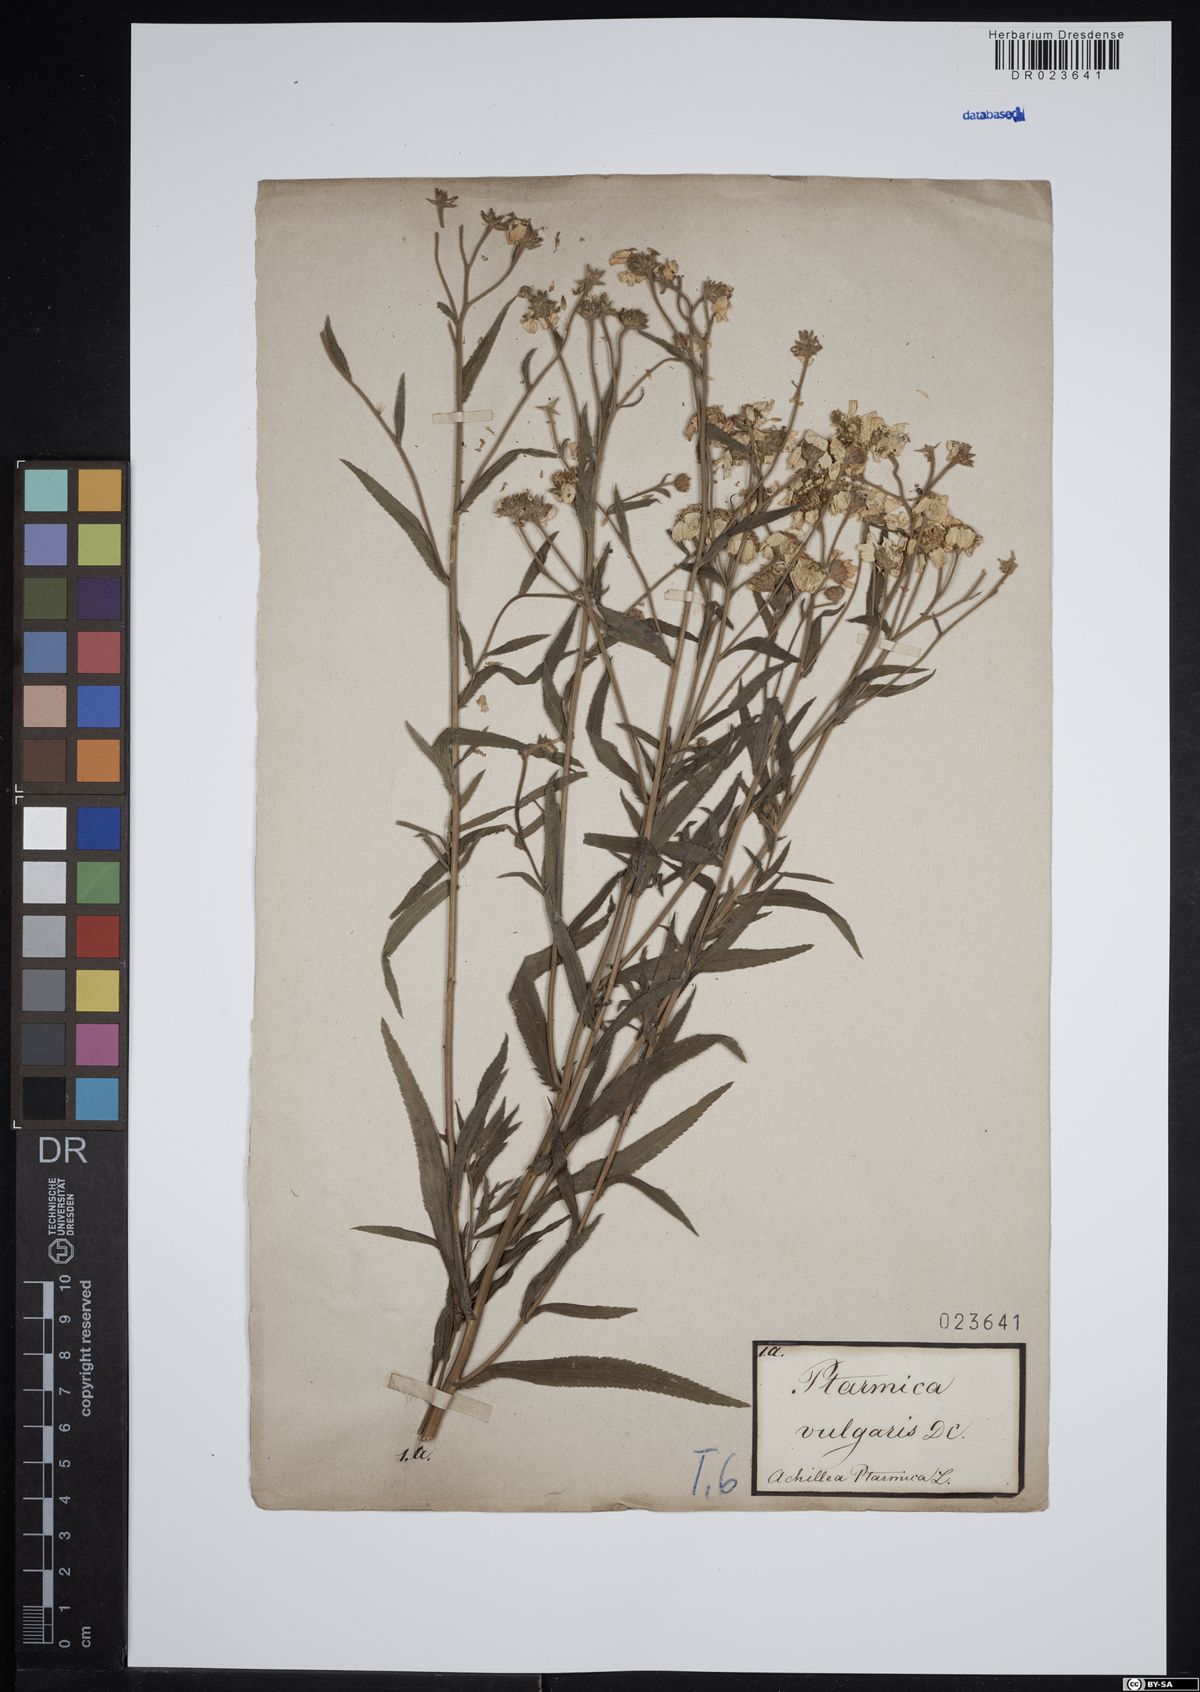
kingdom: Plantae
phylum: Tracheophyta
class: Magnoliopsida
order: Asterales
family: Asteraceae
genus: Achillea
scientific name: Achillea ptarmica
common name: Sneezeweed
